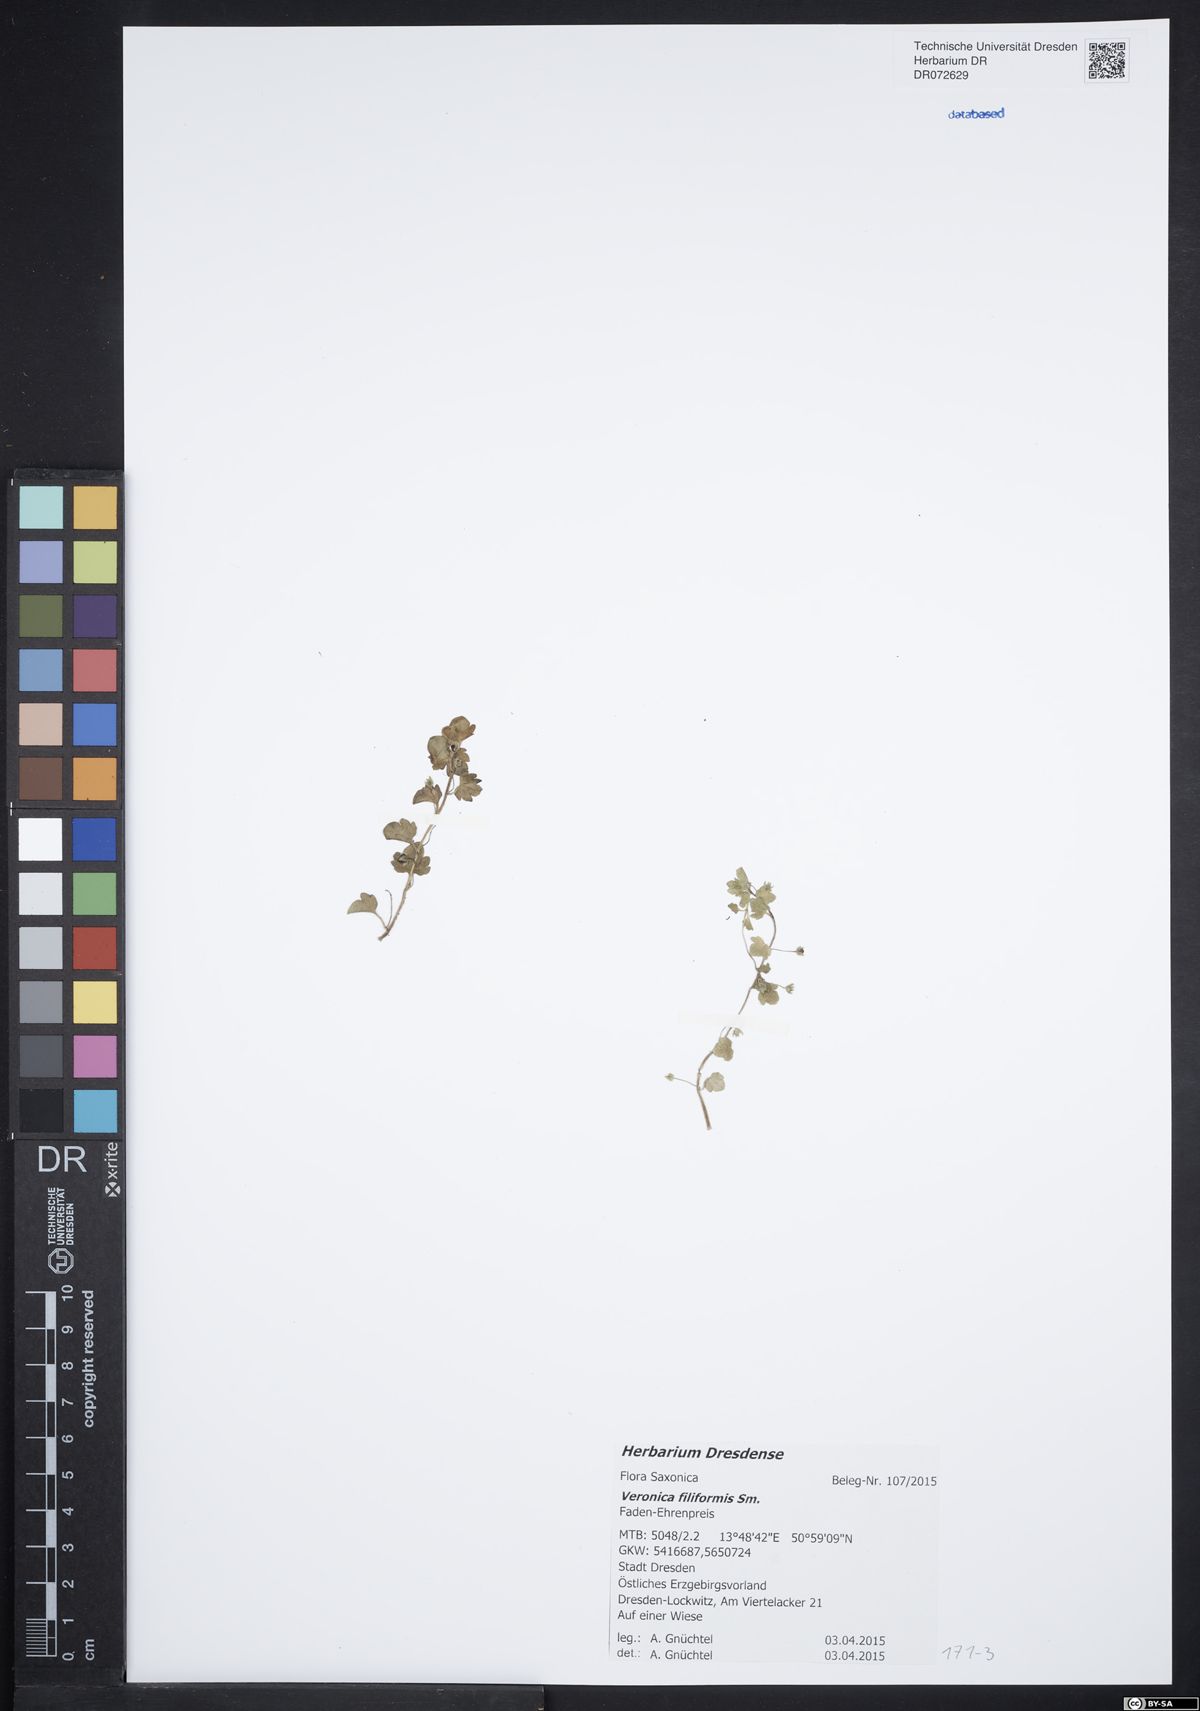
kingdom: Plantae
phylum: Tracheophyta
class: Magnoliopsida
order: Lamiales
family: Plantaginaceae
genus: Veronica
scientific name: Veronica filiformis
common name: Slender speedwell
